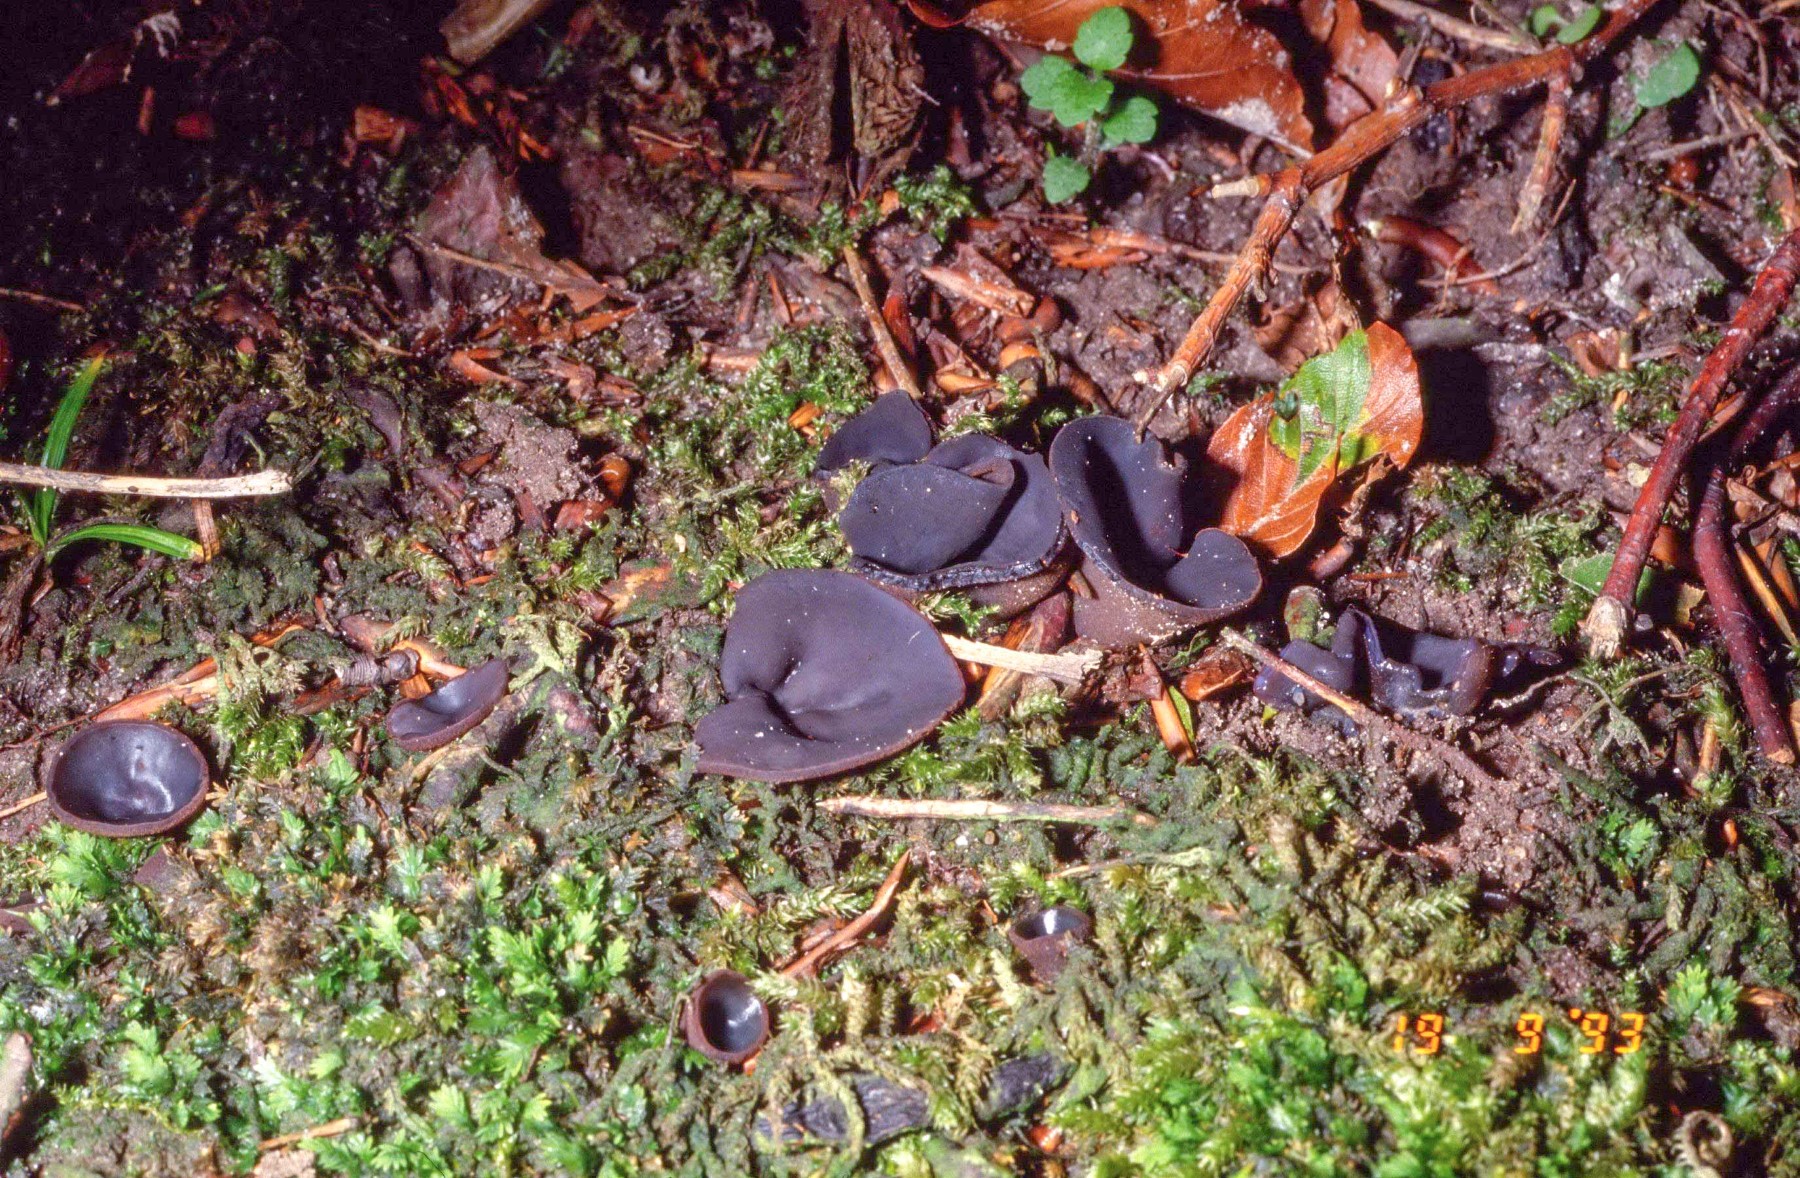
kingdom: Fungi
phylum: Ascomycota
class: Pezizomycetes
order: Pezizales
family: Pezizaceae
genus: Peziza
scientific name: Peziza saniosa
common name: blåmælket bægersvamp
